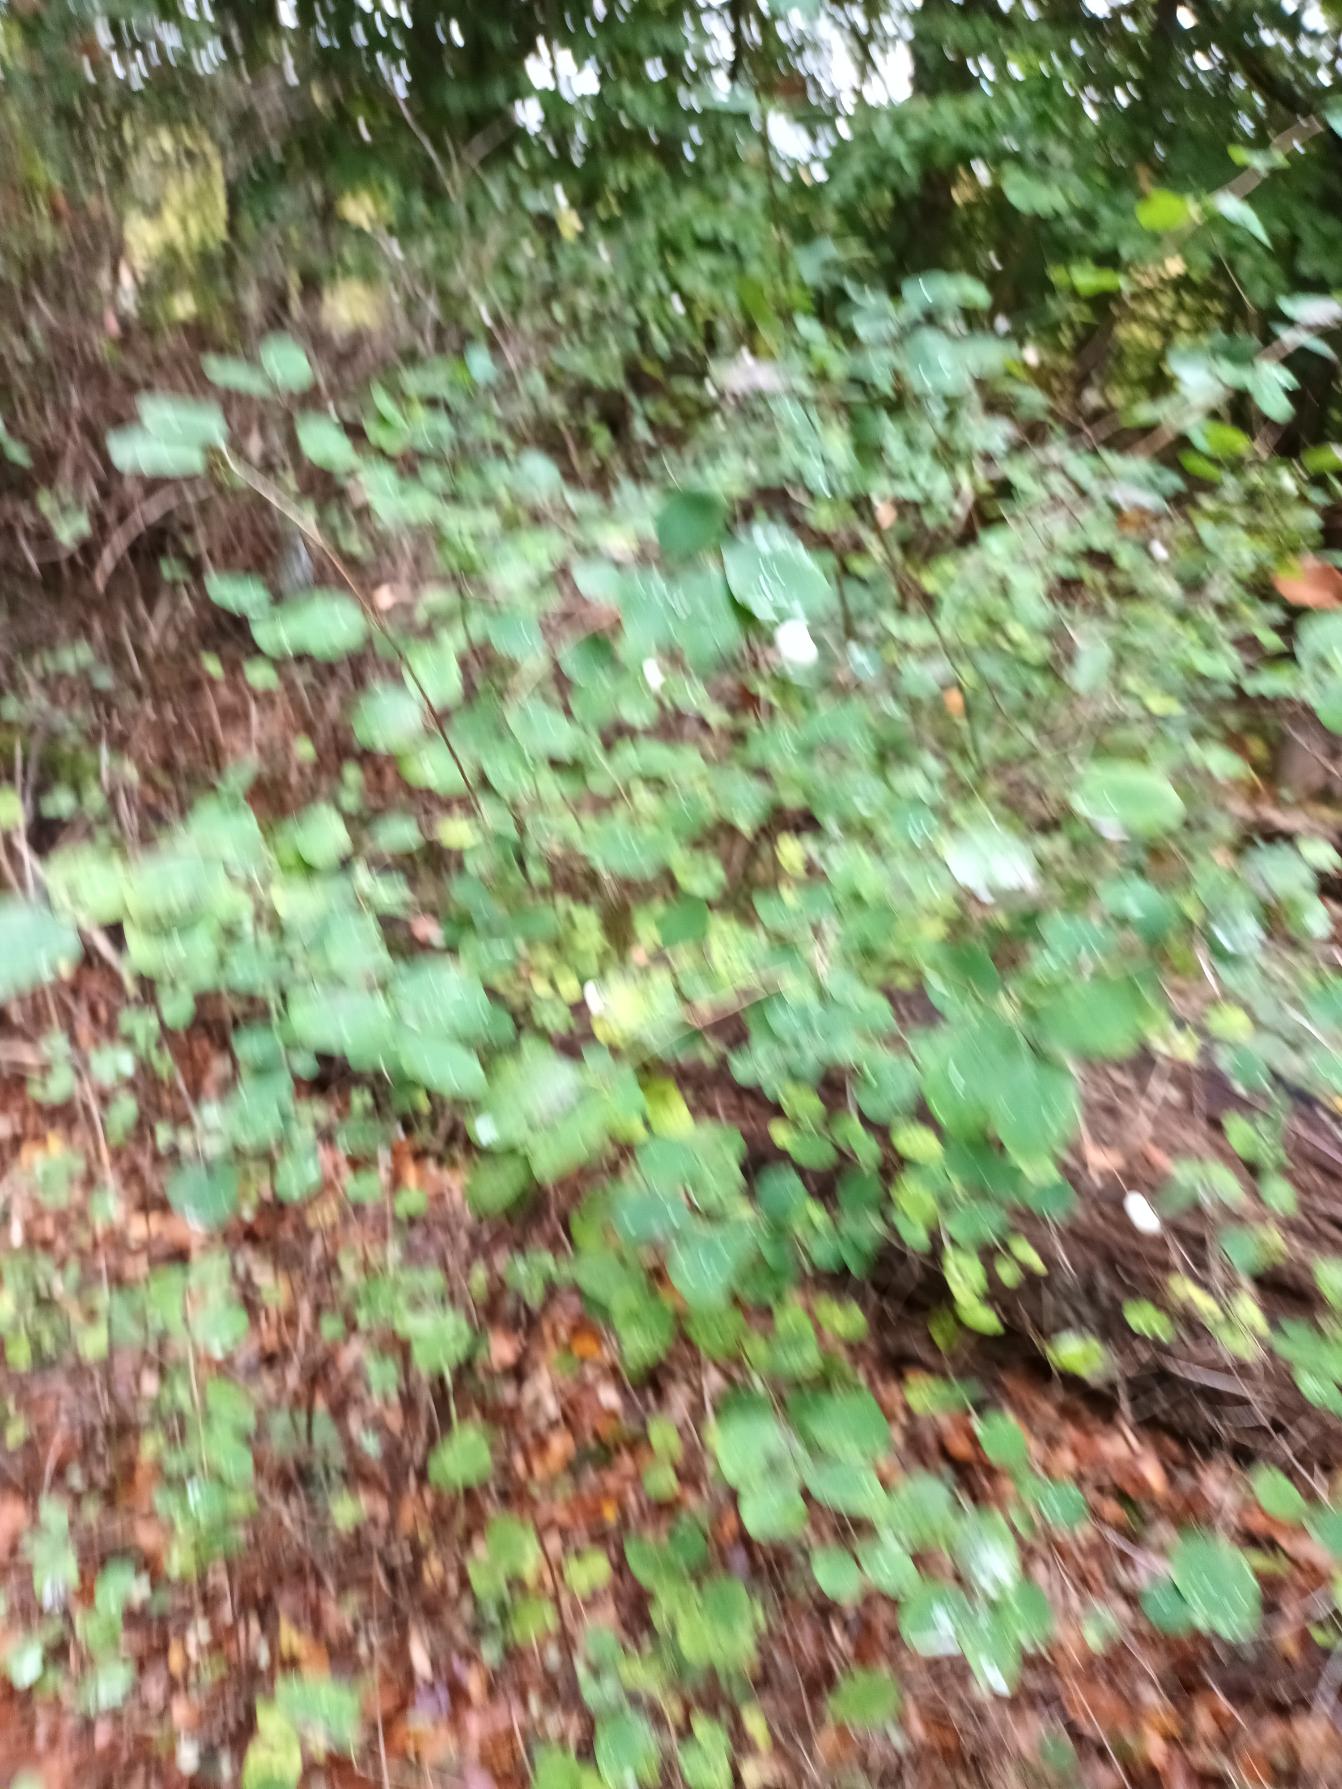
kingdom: Plantae
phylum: Tracheophyta
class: Magnoliopsida
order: Dipsacales
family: Caprifoliaceae
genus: Symphoricarpos
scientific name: Symphoricarpos albus
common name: Almindelig snebær
